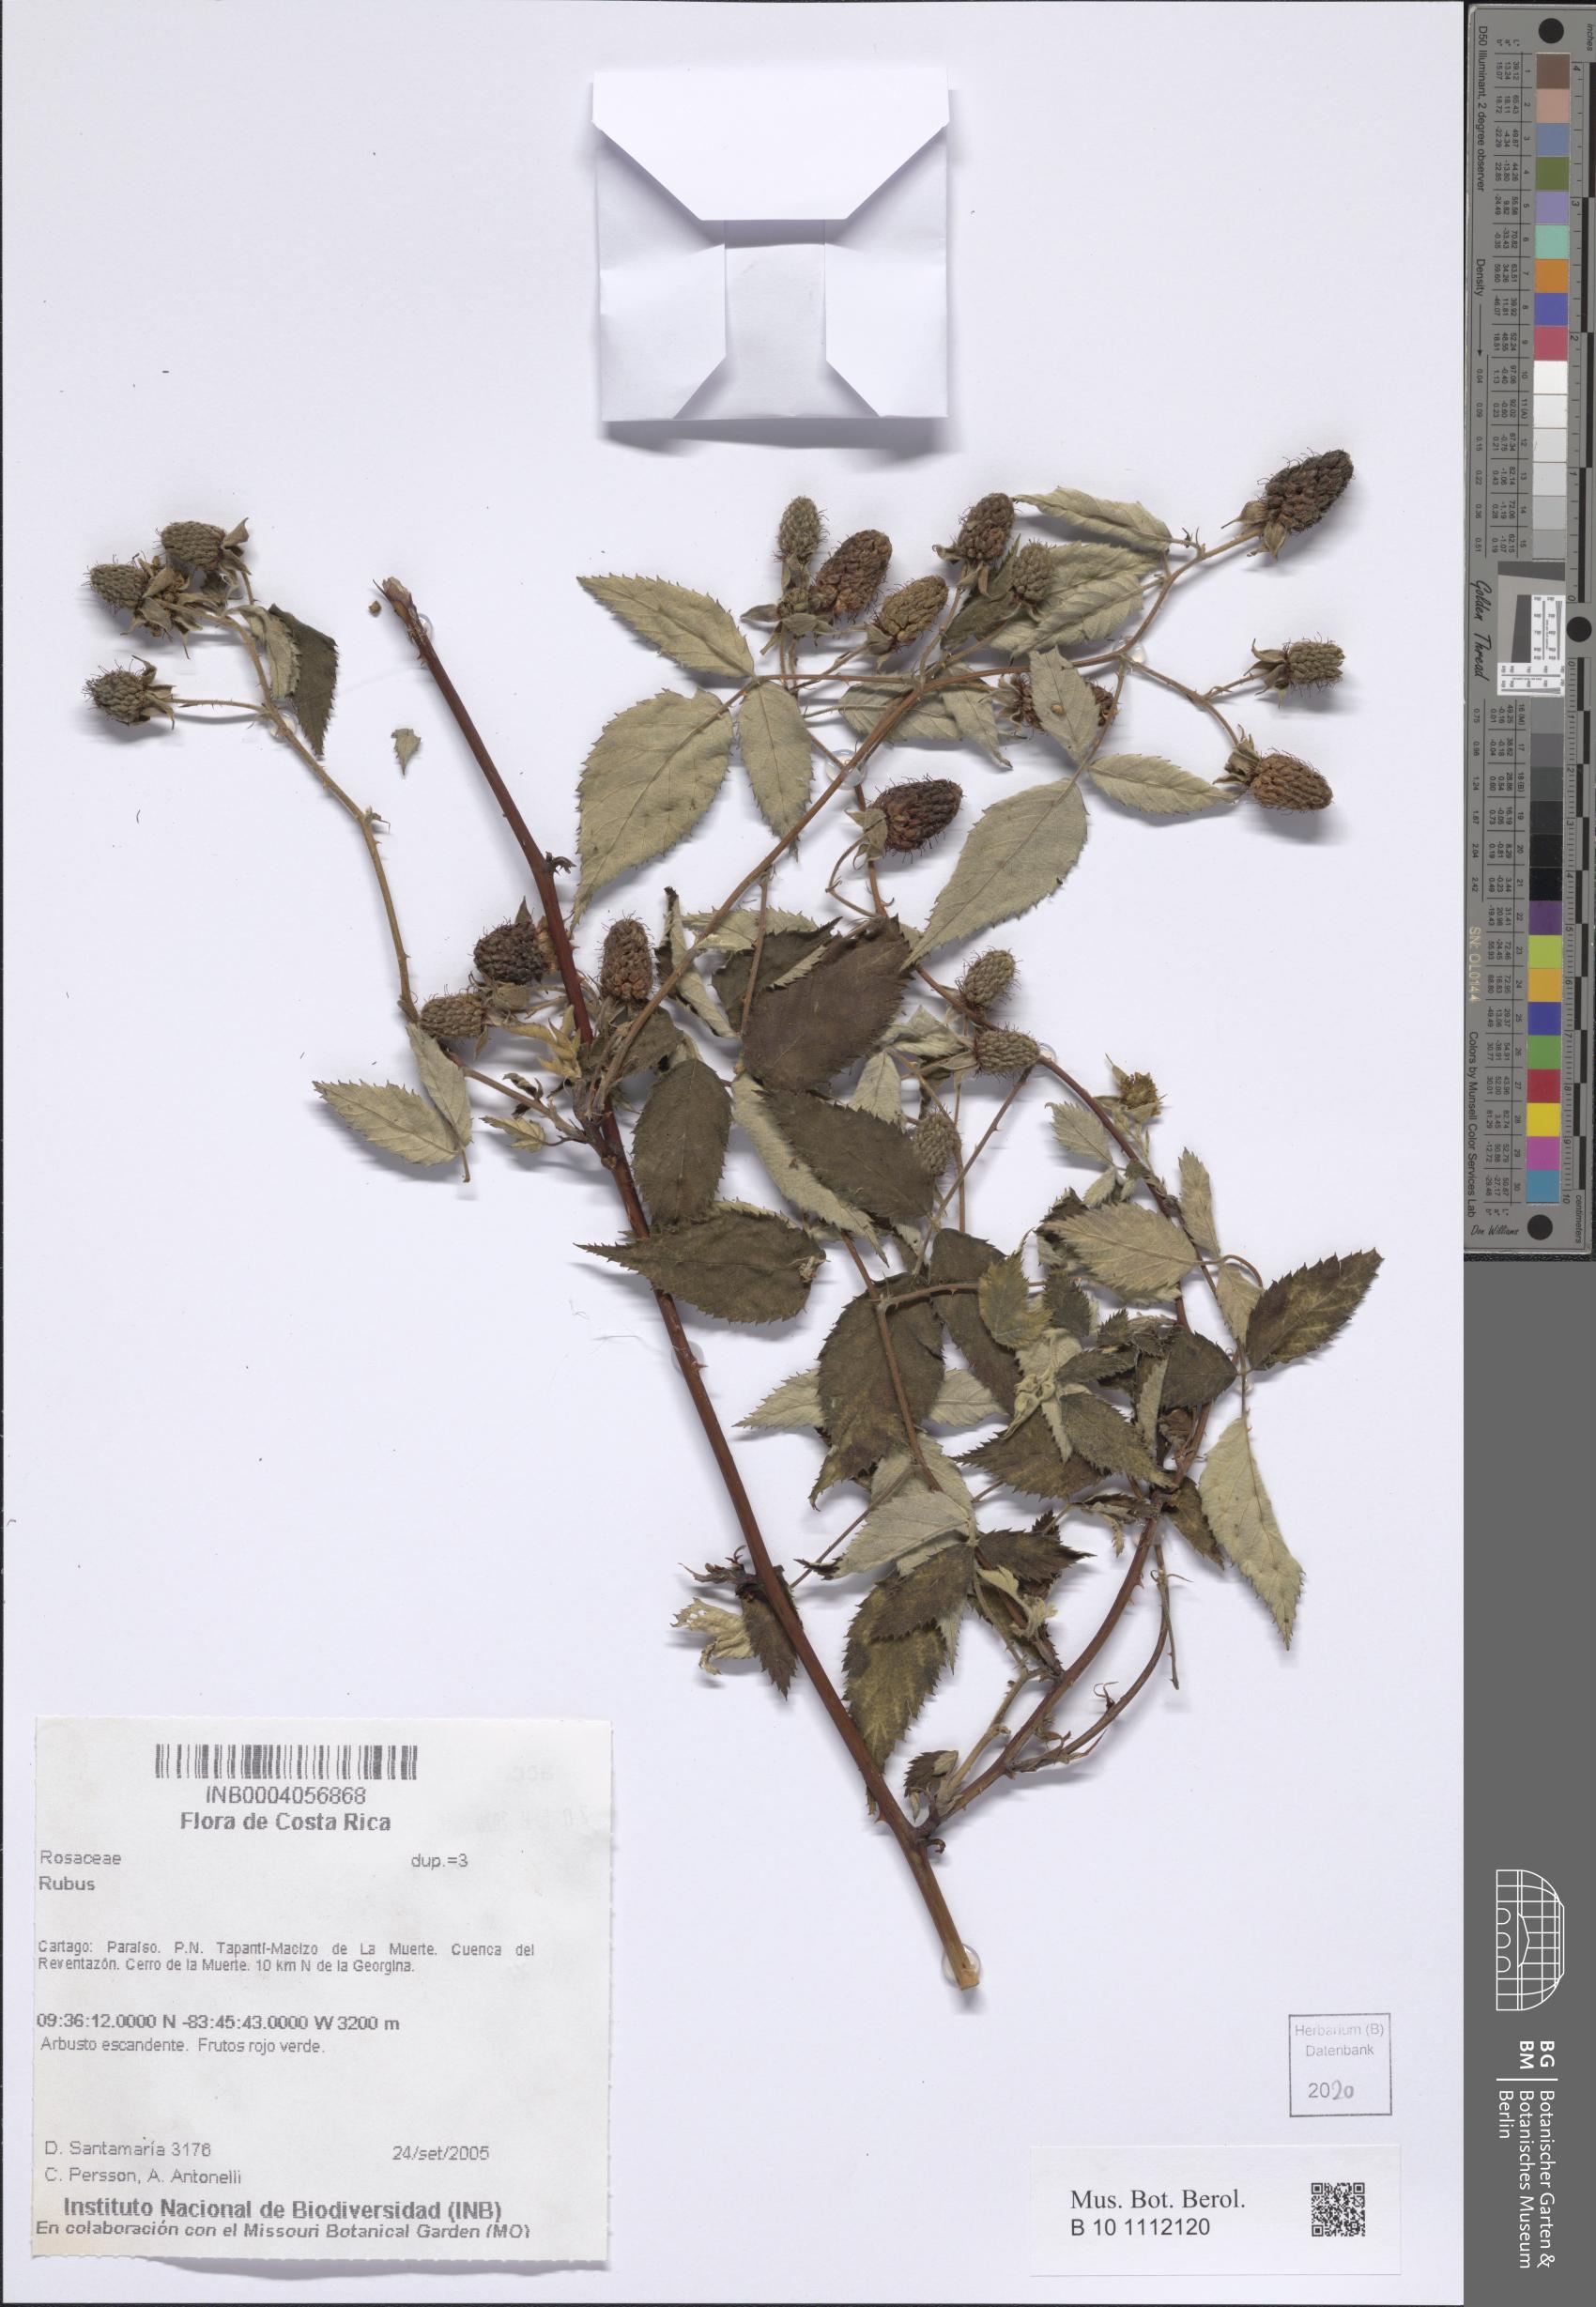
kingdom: Plantae
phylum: Tracheophyta
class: Magnoliopsida
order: Rosales
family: Rosaceae
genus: Rubus
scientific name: Rubus
